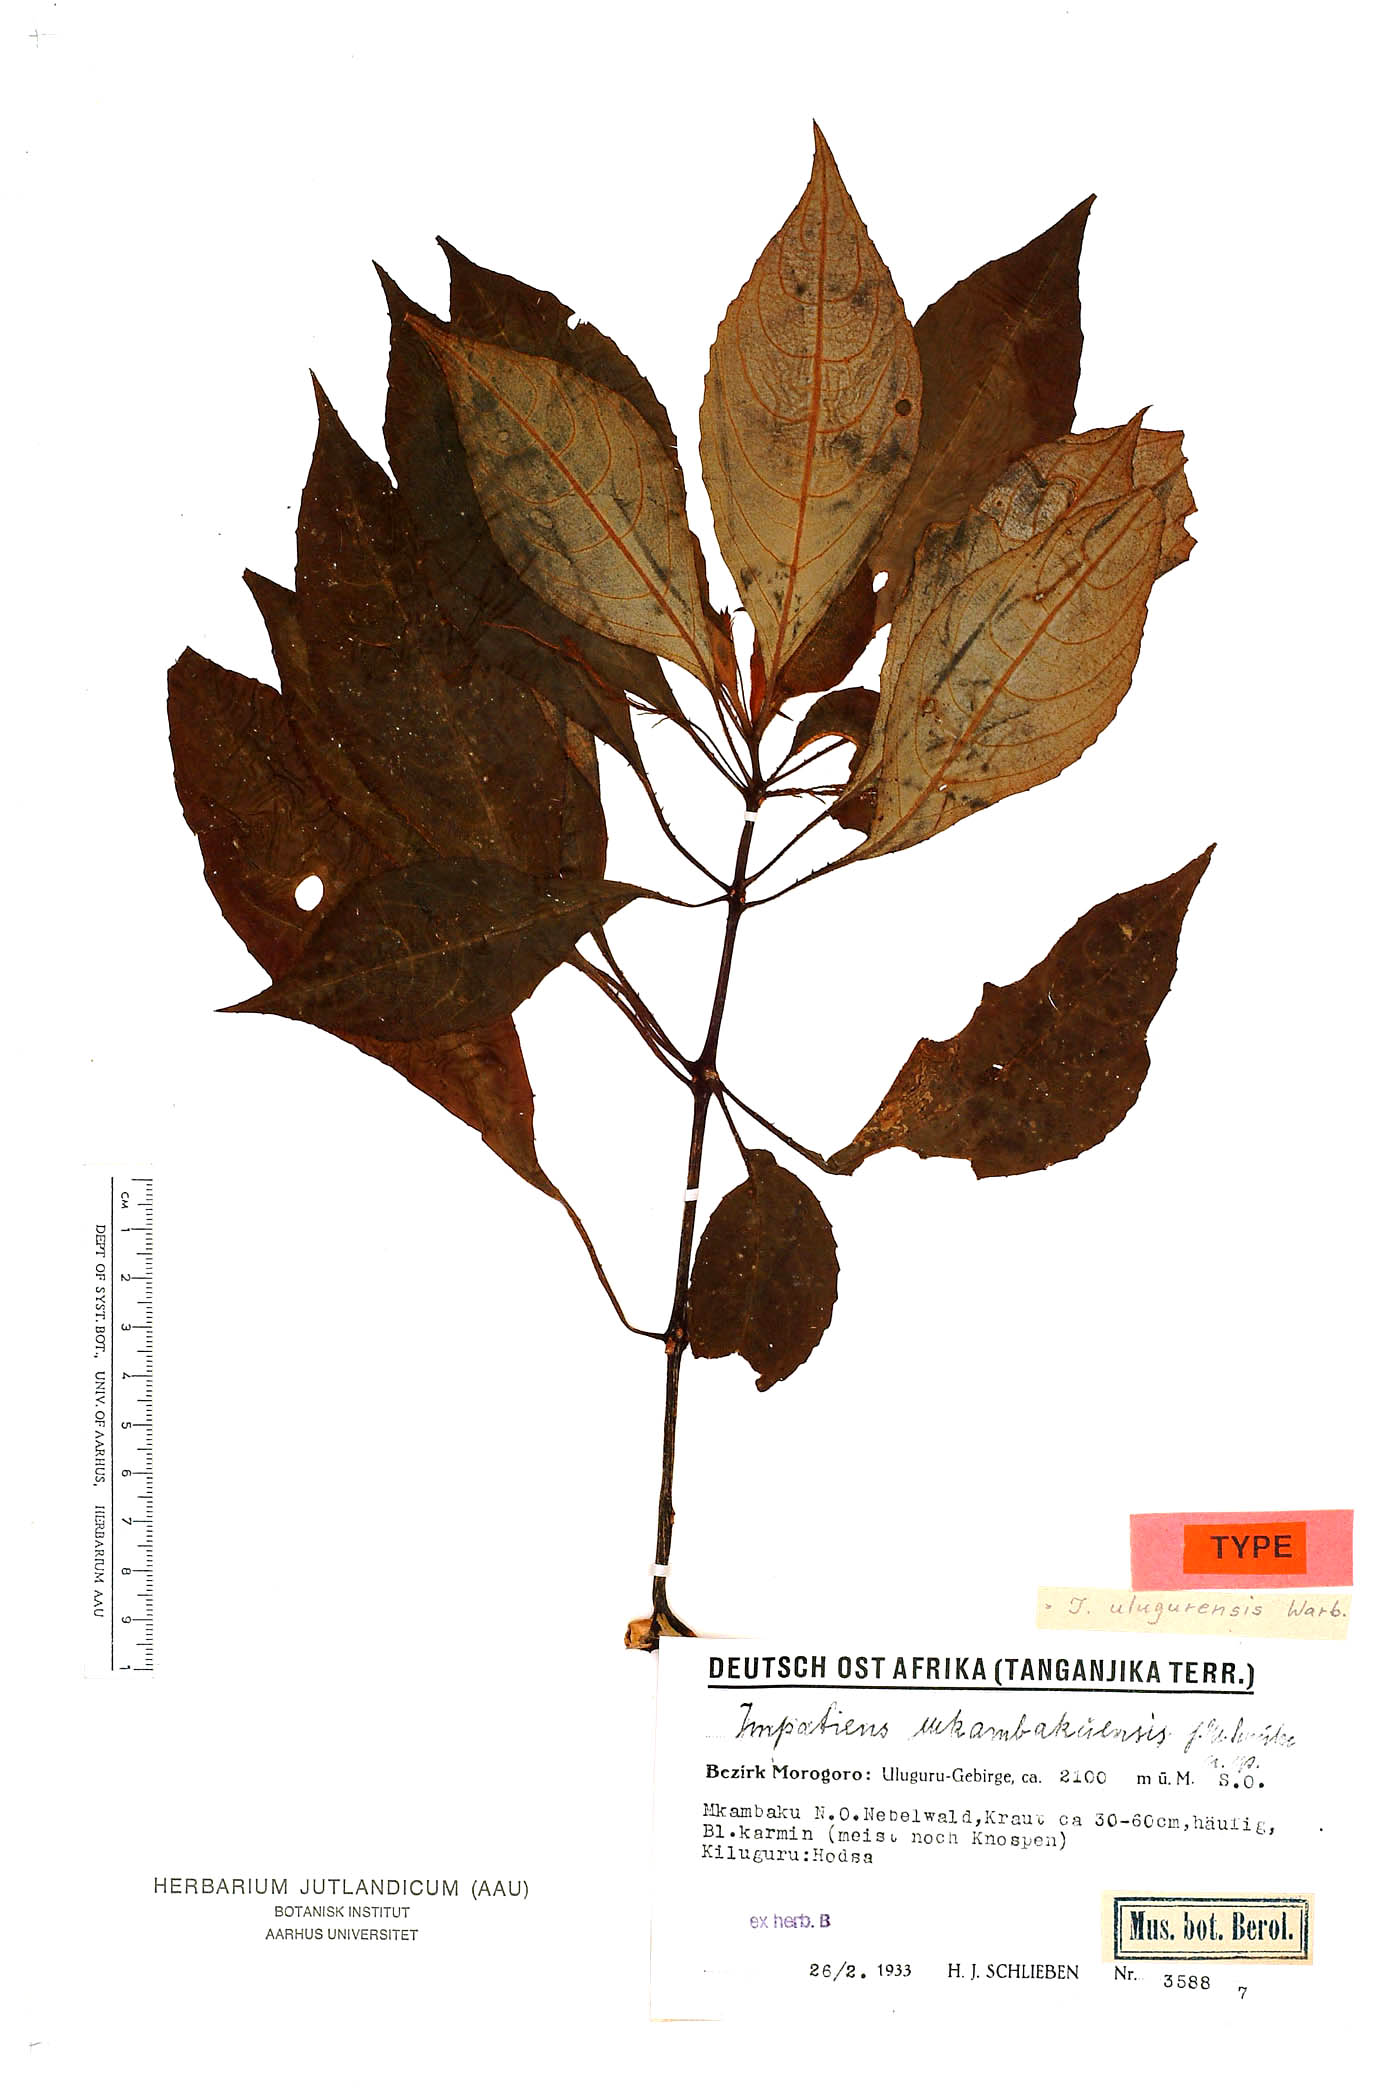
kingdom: Plantae
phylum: Tracheophyta
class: Magnoliopsida
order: Ericales
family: Balsaminaceae
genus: Impatiens
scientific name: Impatiens ulugurensis
